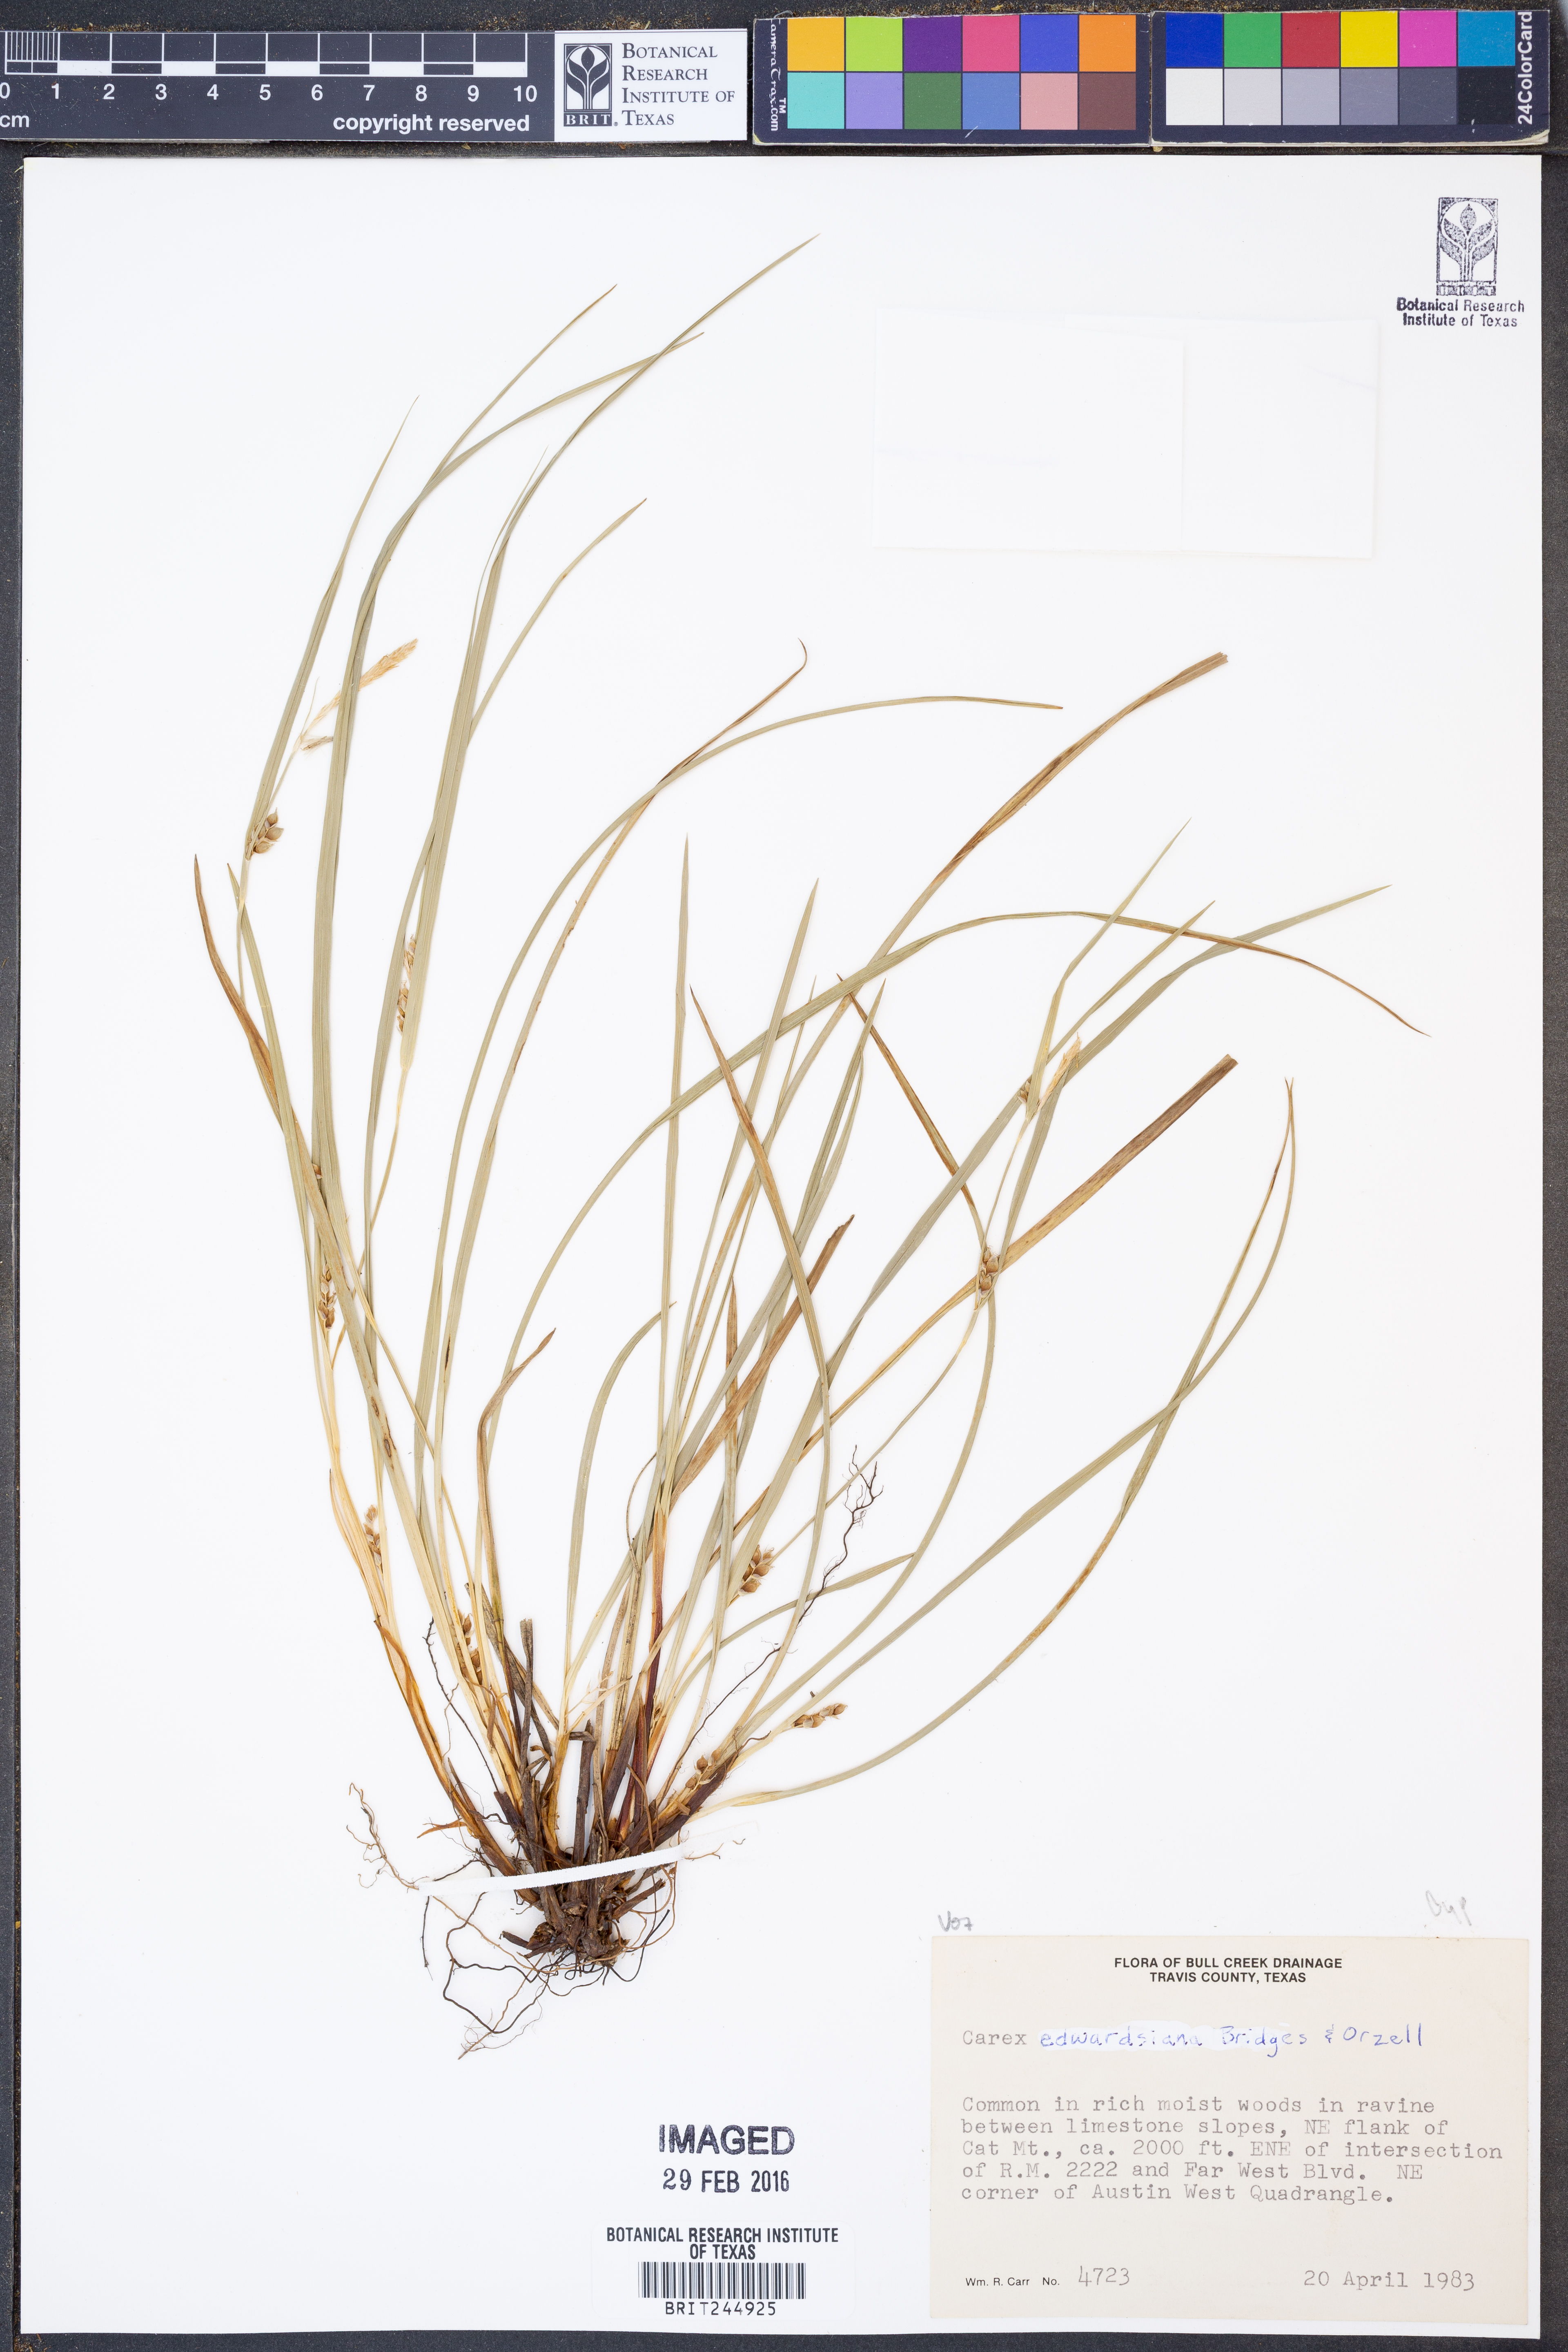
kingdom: Plantae
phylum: Tracheophyta
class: Liliopsida
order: Poales
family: Cyperaceae
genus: Carex
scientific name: Carex edwardsiana
